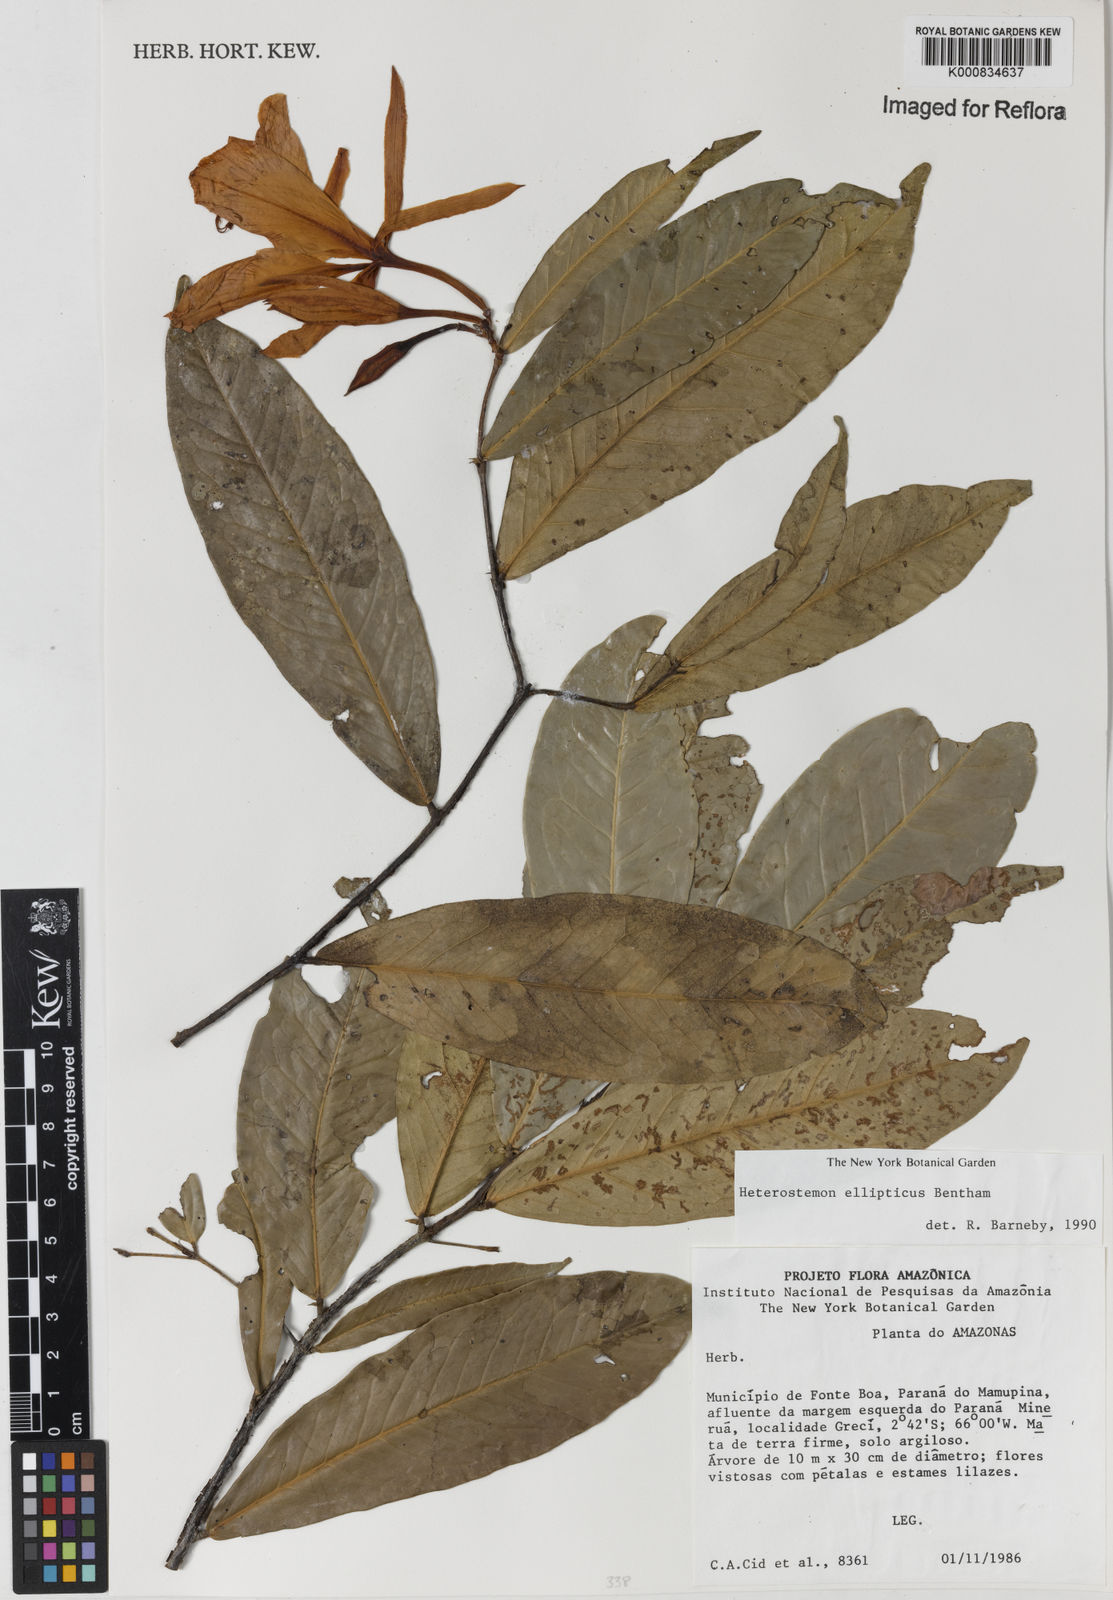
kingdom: Plantae
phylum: Tracheophyta
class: Magnoliopsida
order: Fabales
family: Fabaceae
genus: Heterostemon
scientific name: Heterostemon ellipticus
